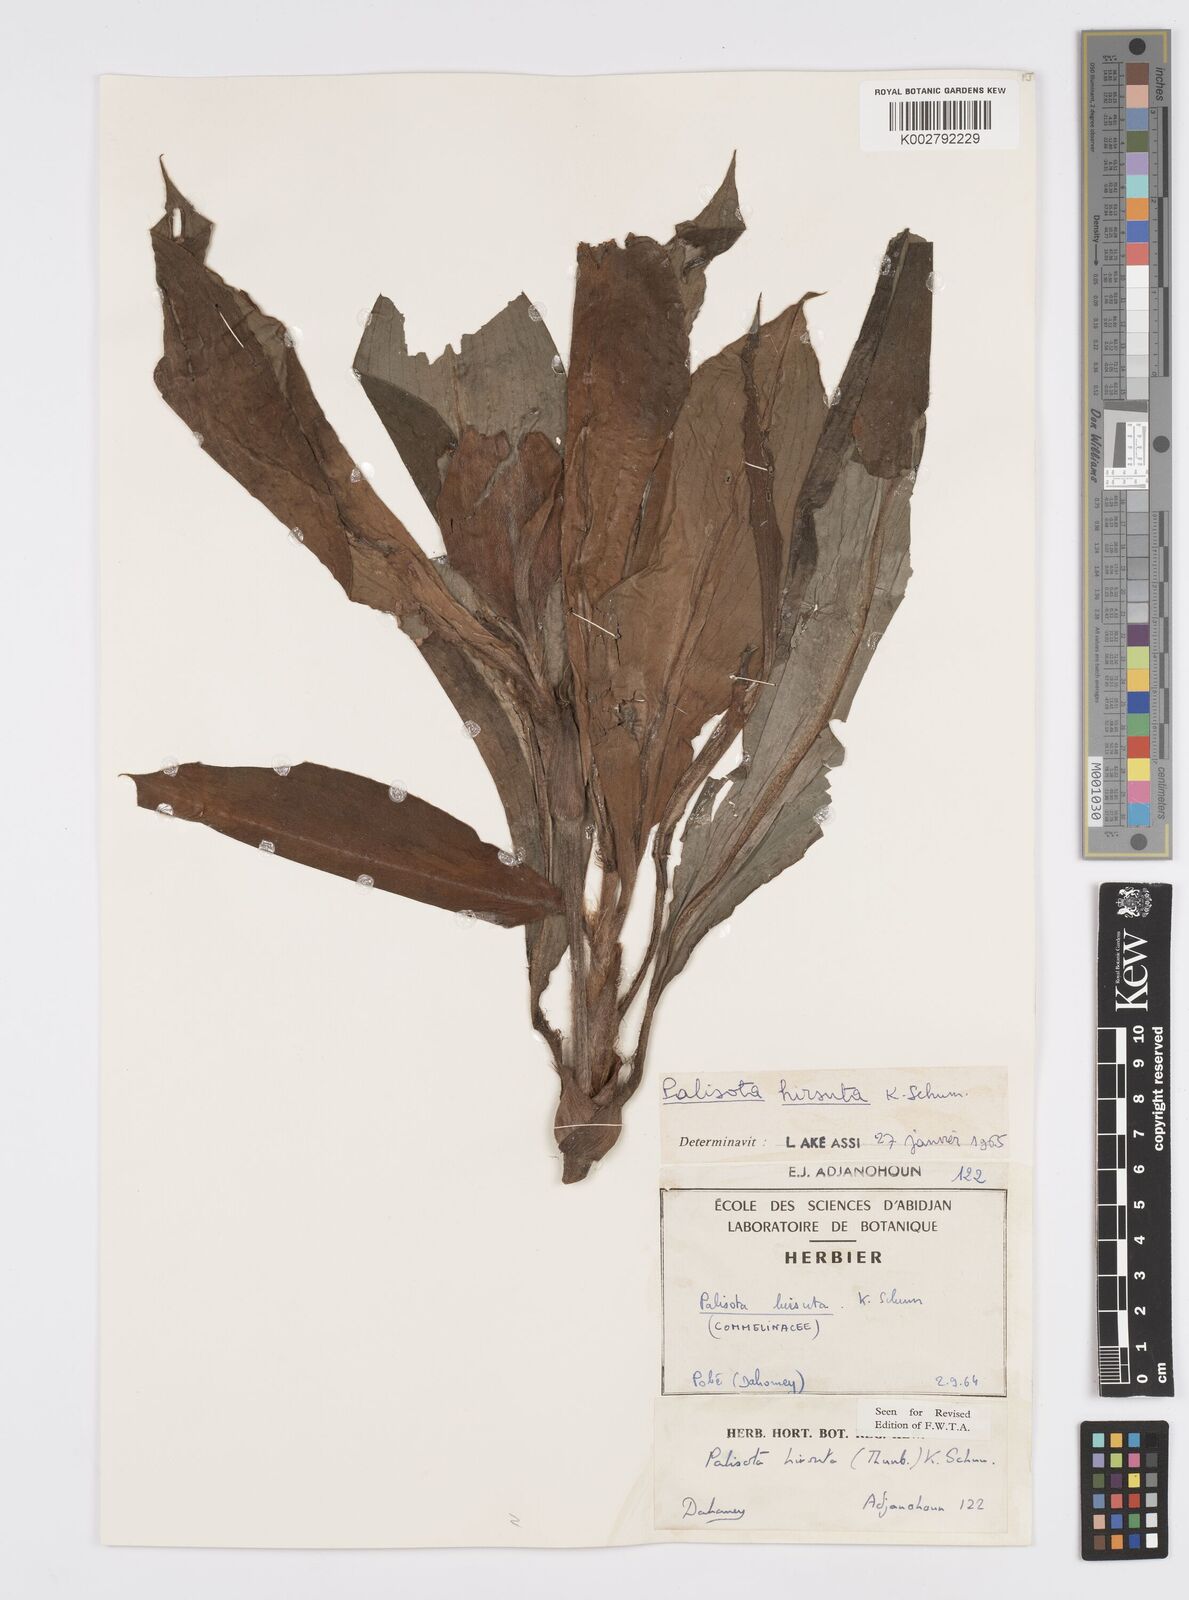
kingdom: Plantae
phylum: Tracheophyta
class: Liliopsida
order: Commelinales
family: Commelinaceae
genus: Palisota
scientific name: Palisota hirsuta
